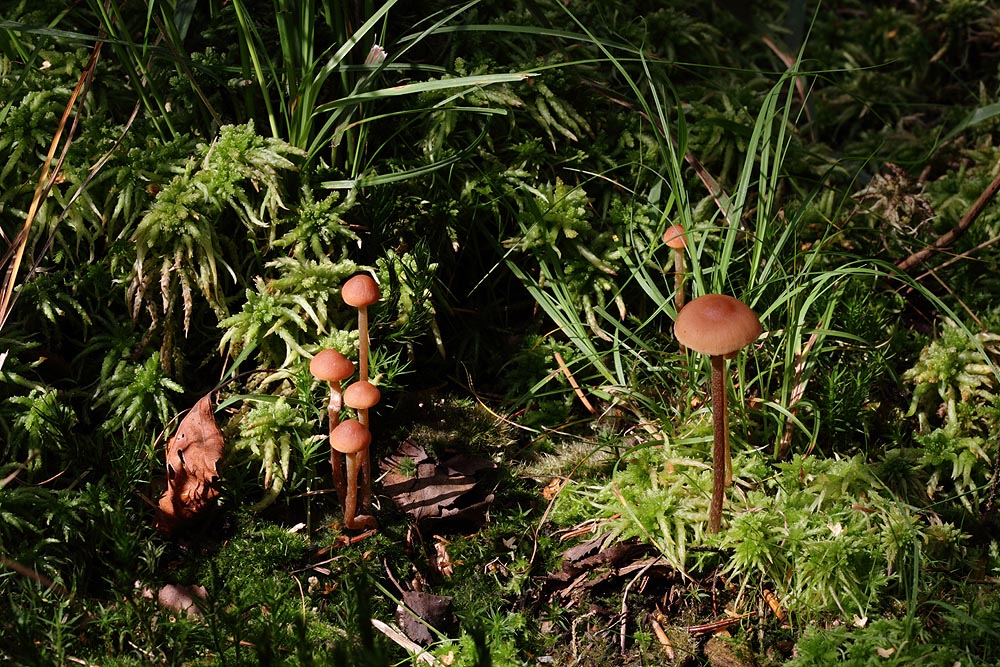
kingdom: Fungi
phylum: Basidiomycota
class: Agaricomycetes
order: Agaricales
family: Strophariaceae
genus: Bogbodia
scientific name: Bogbodia uda
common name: tørve-svovlhat
